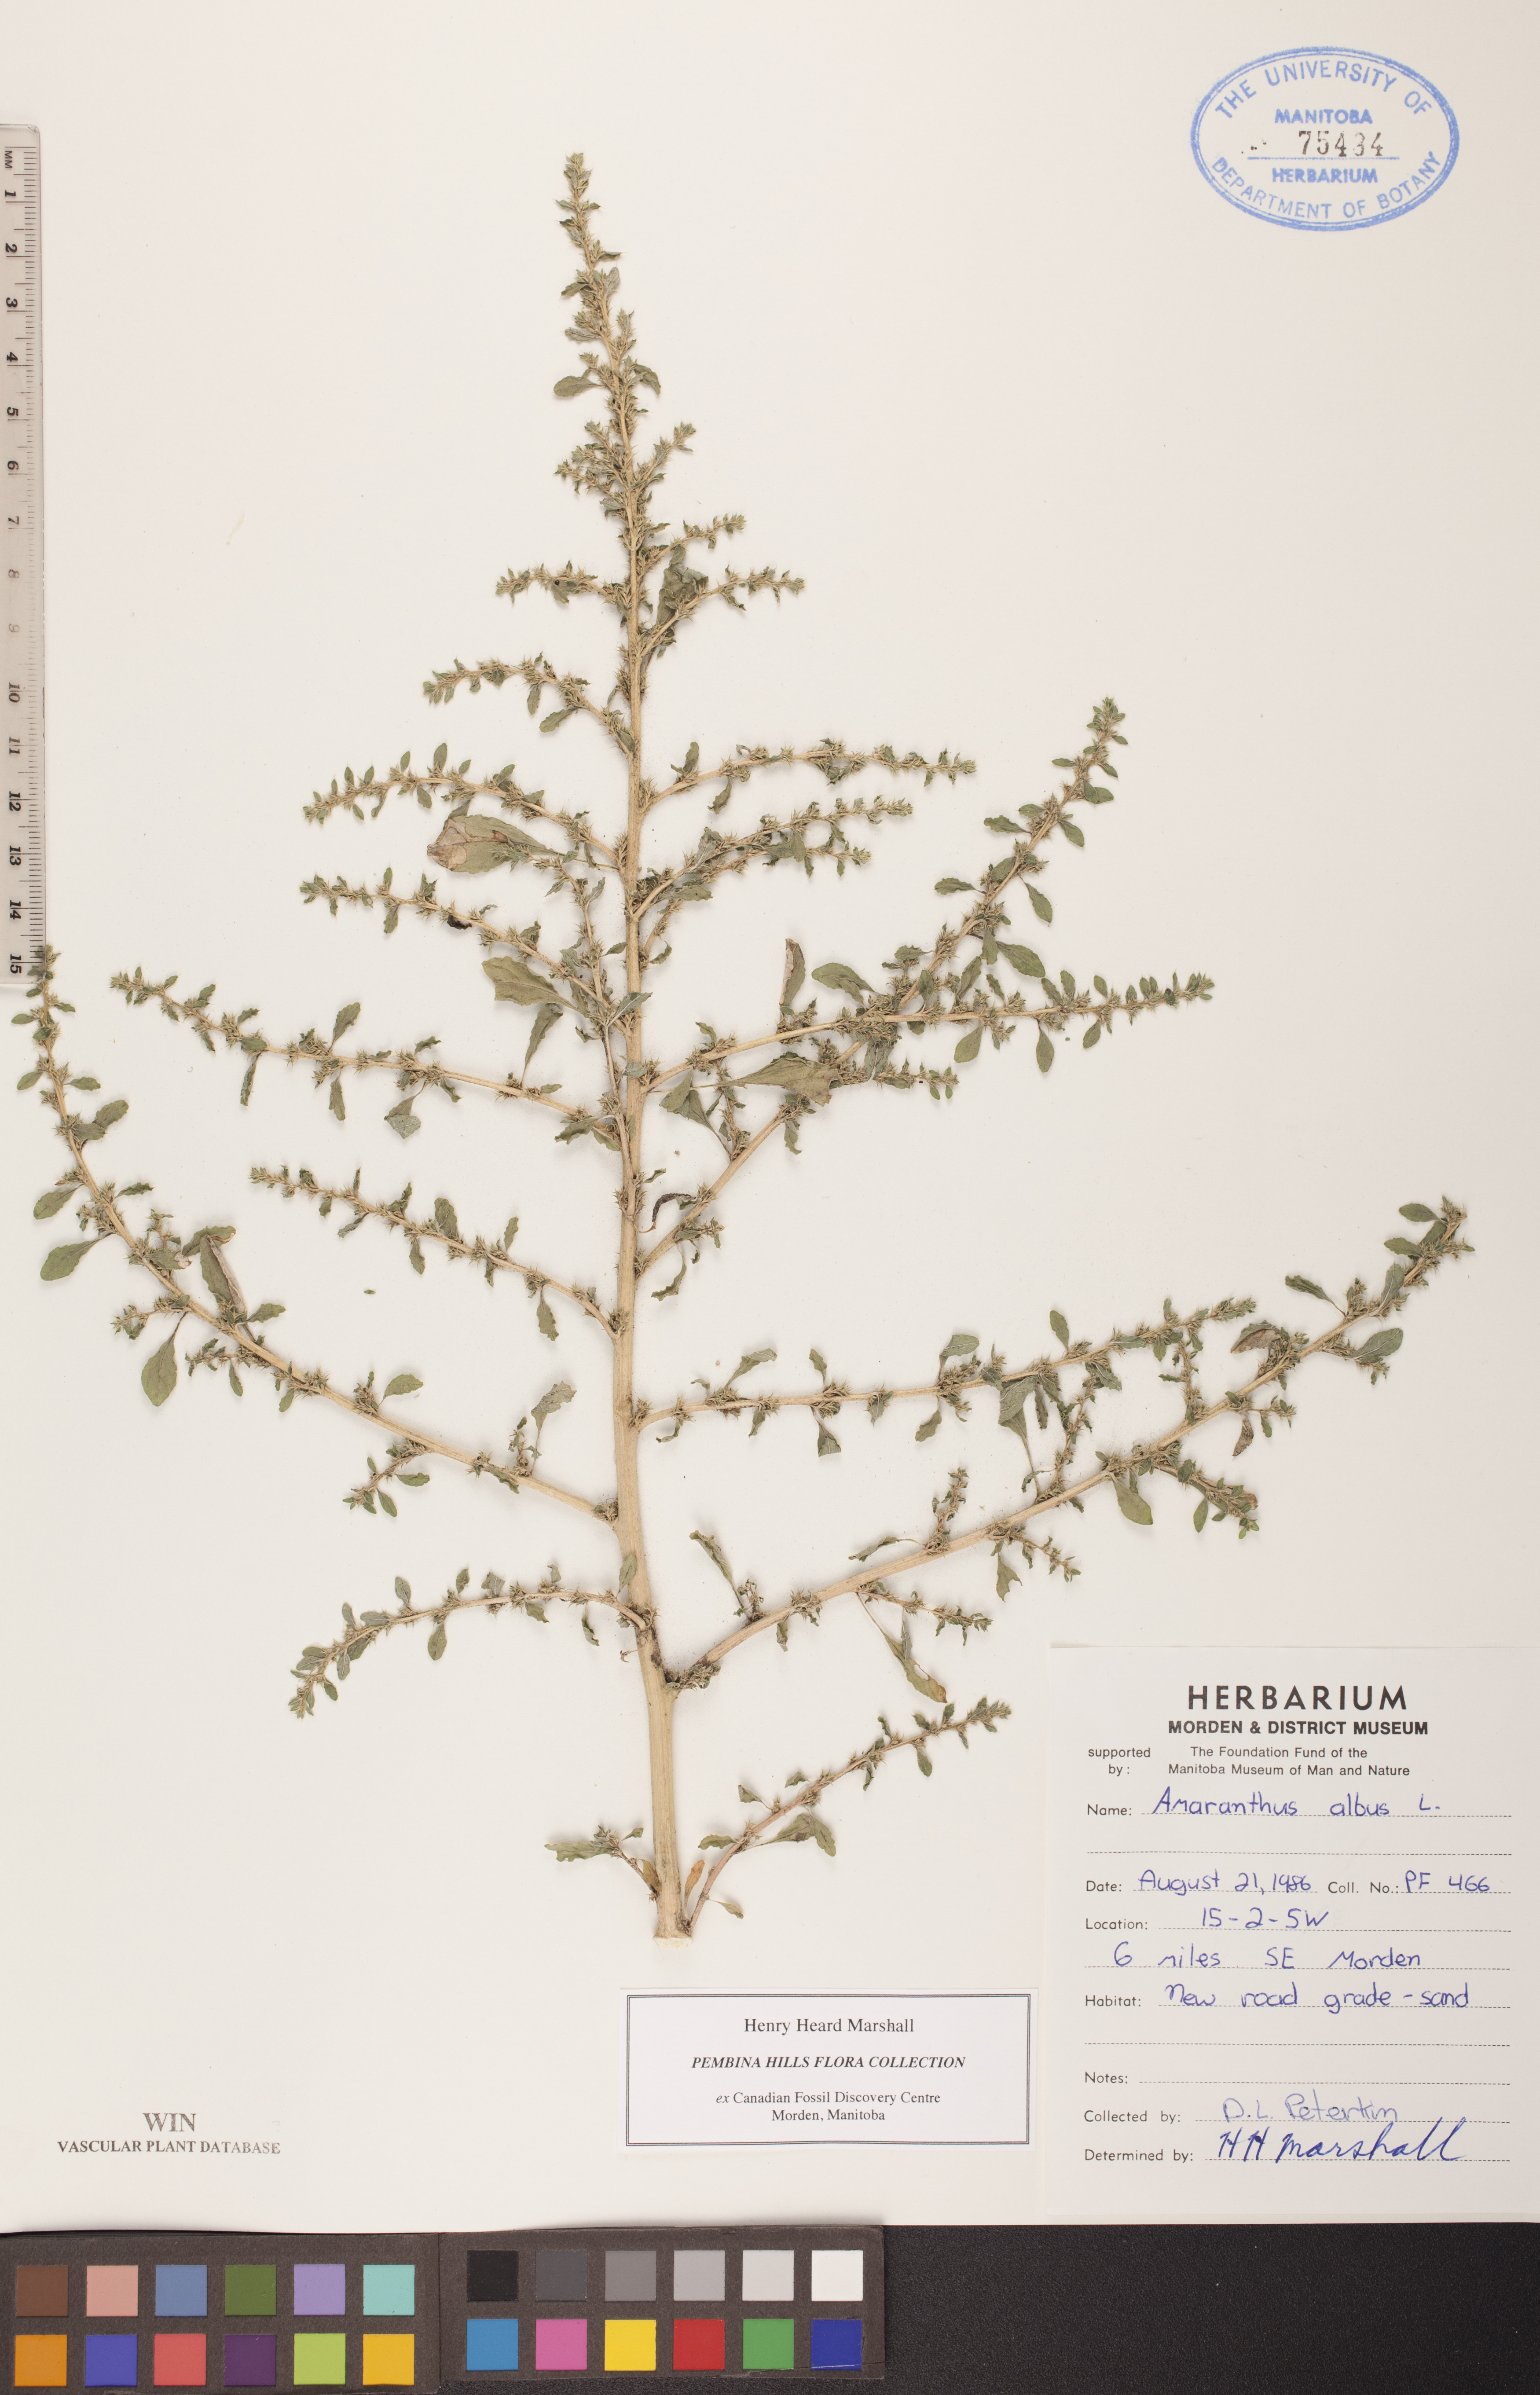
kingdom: Plantae
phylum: Tracheophyta
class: Magnoliopsida
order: Caryophyllales
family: Amaranthaceae
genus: Amaranthus
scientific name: Amaranthus albus
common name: White pigweed
